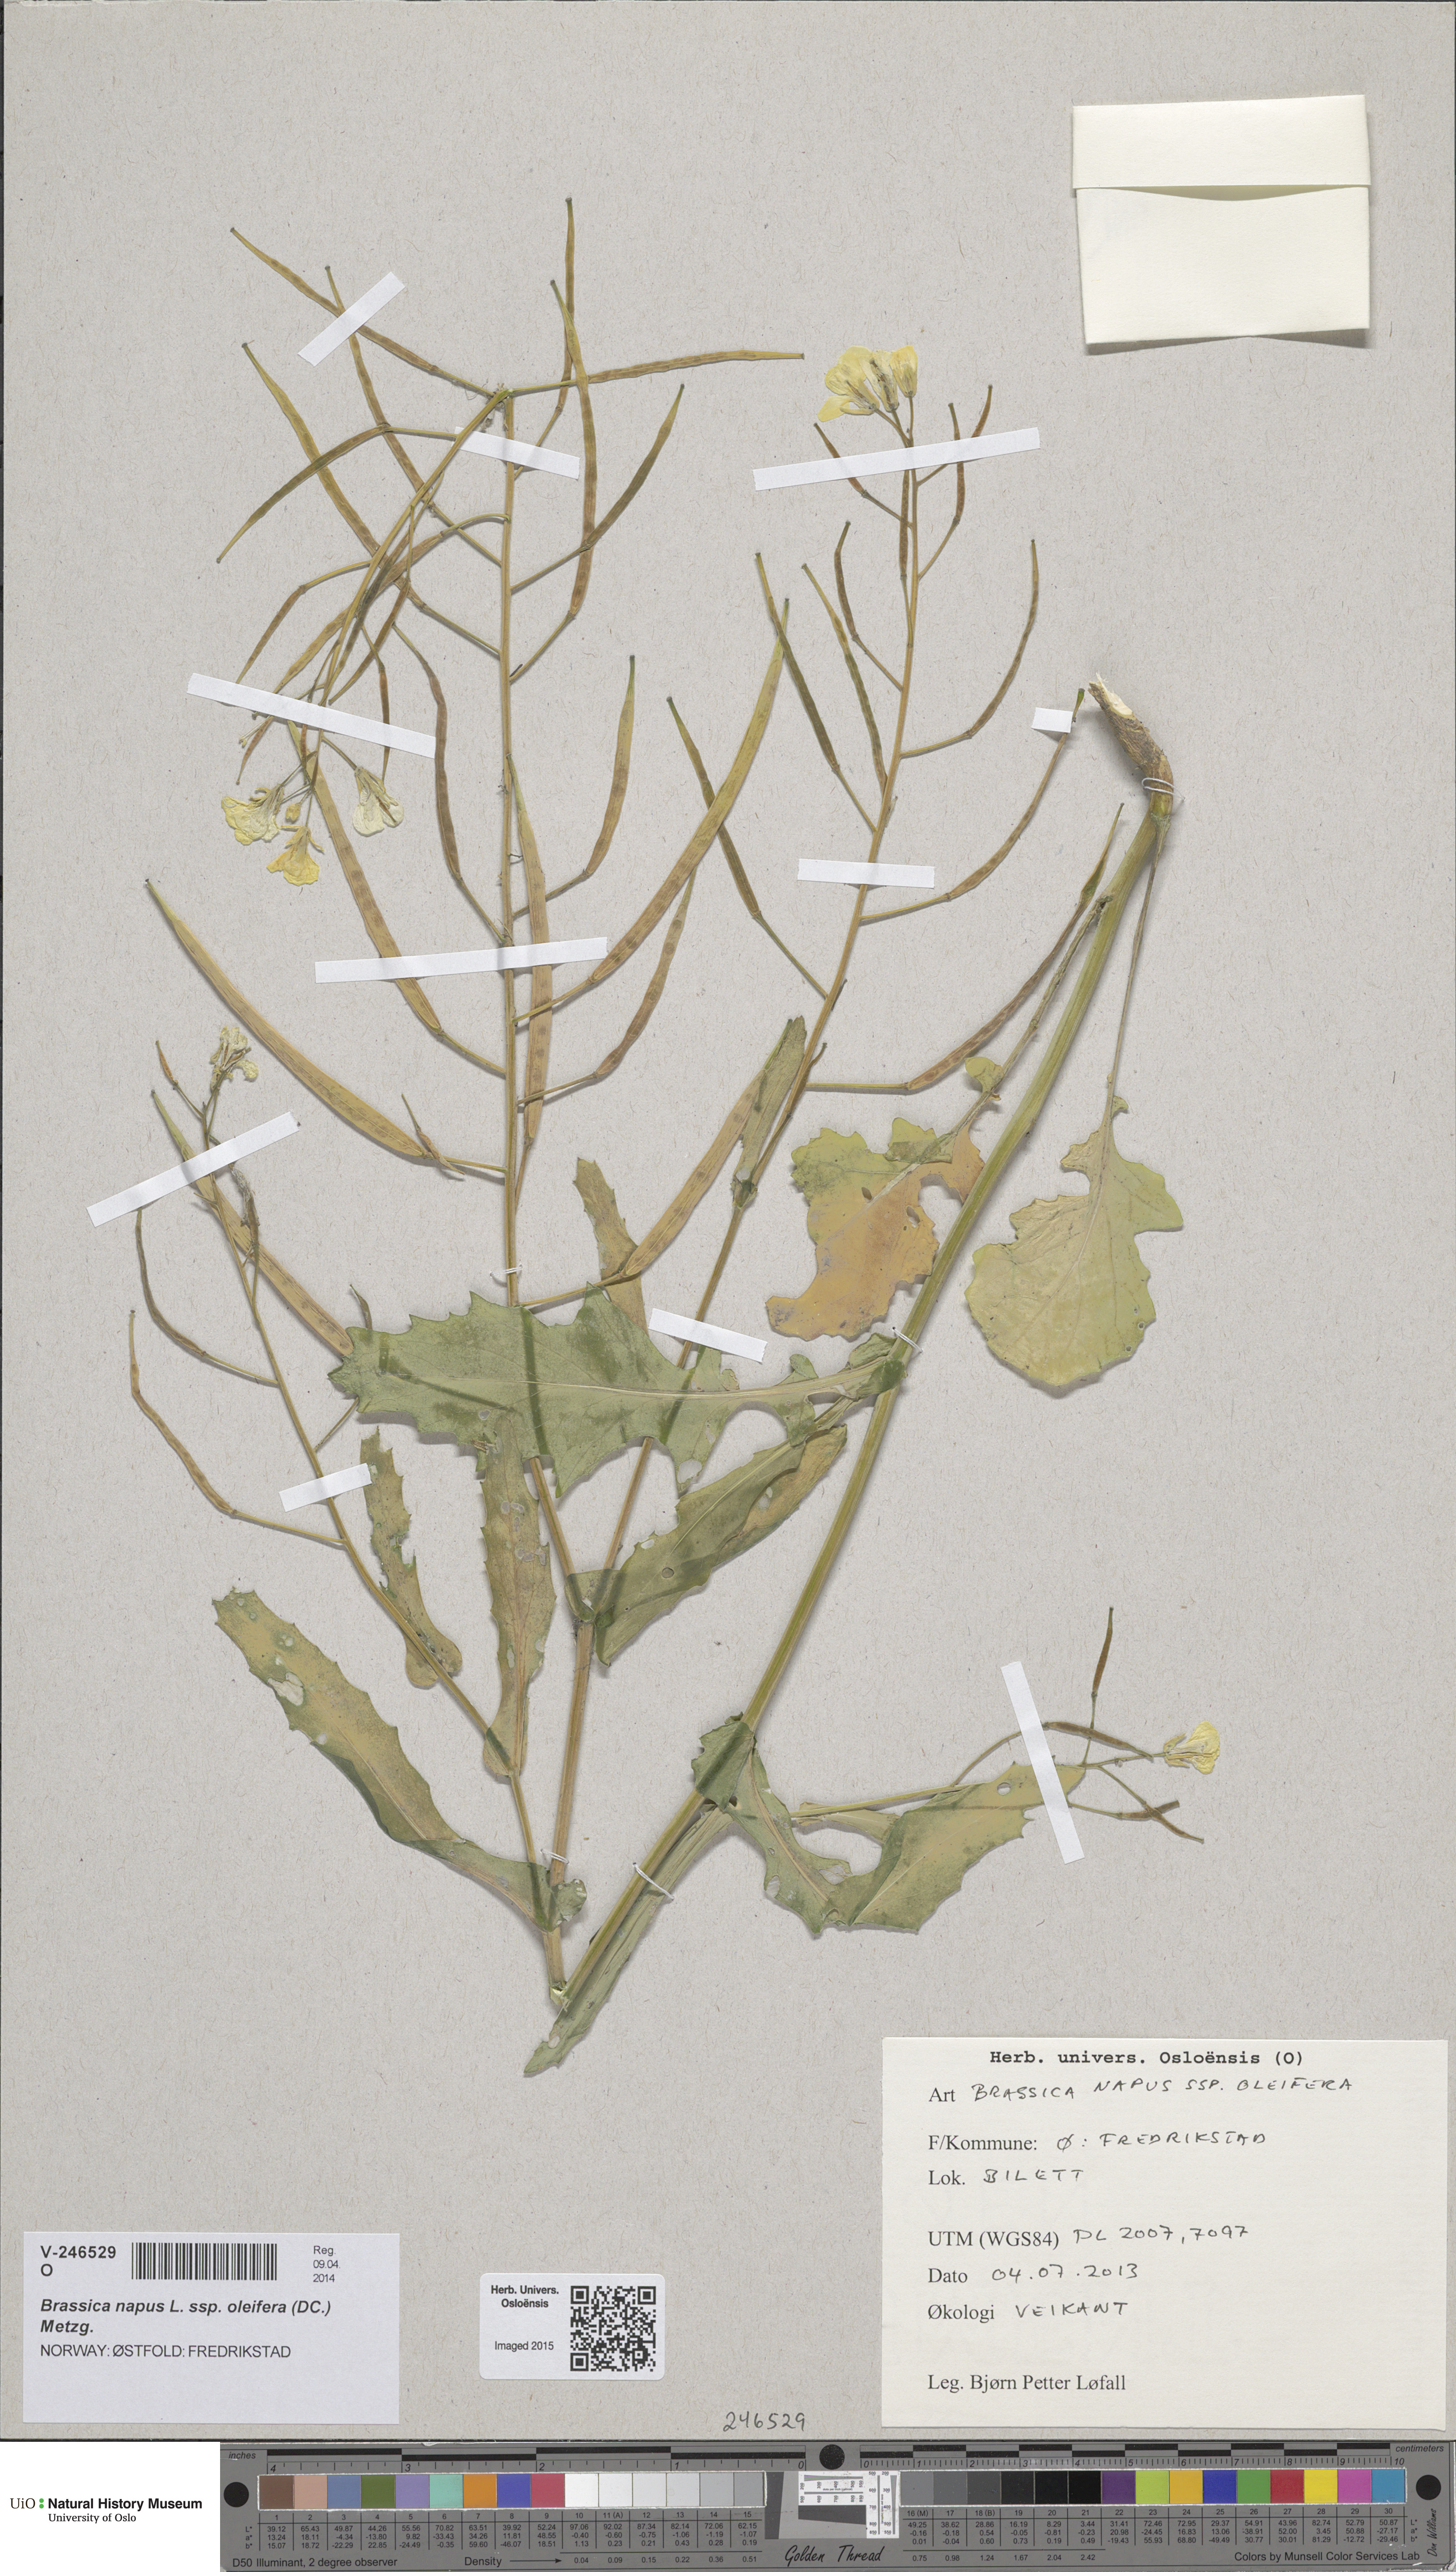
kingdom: Plantae
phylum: Tracheophyta
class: Magnoliopsida
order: Brassicales
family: Brassicaceae
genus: Brassica
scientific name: Brassica napus
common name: Rape
